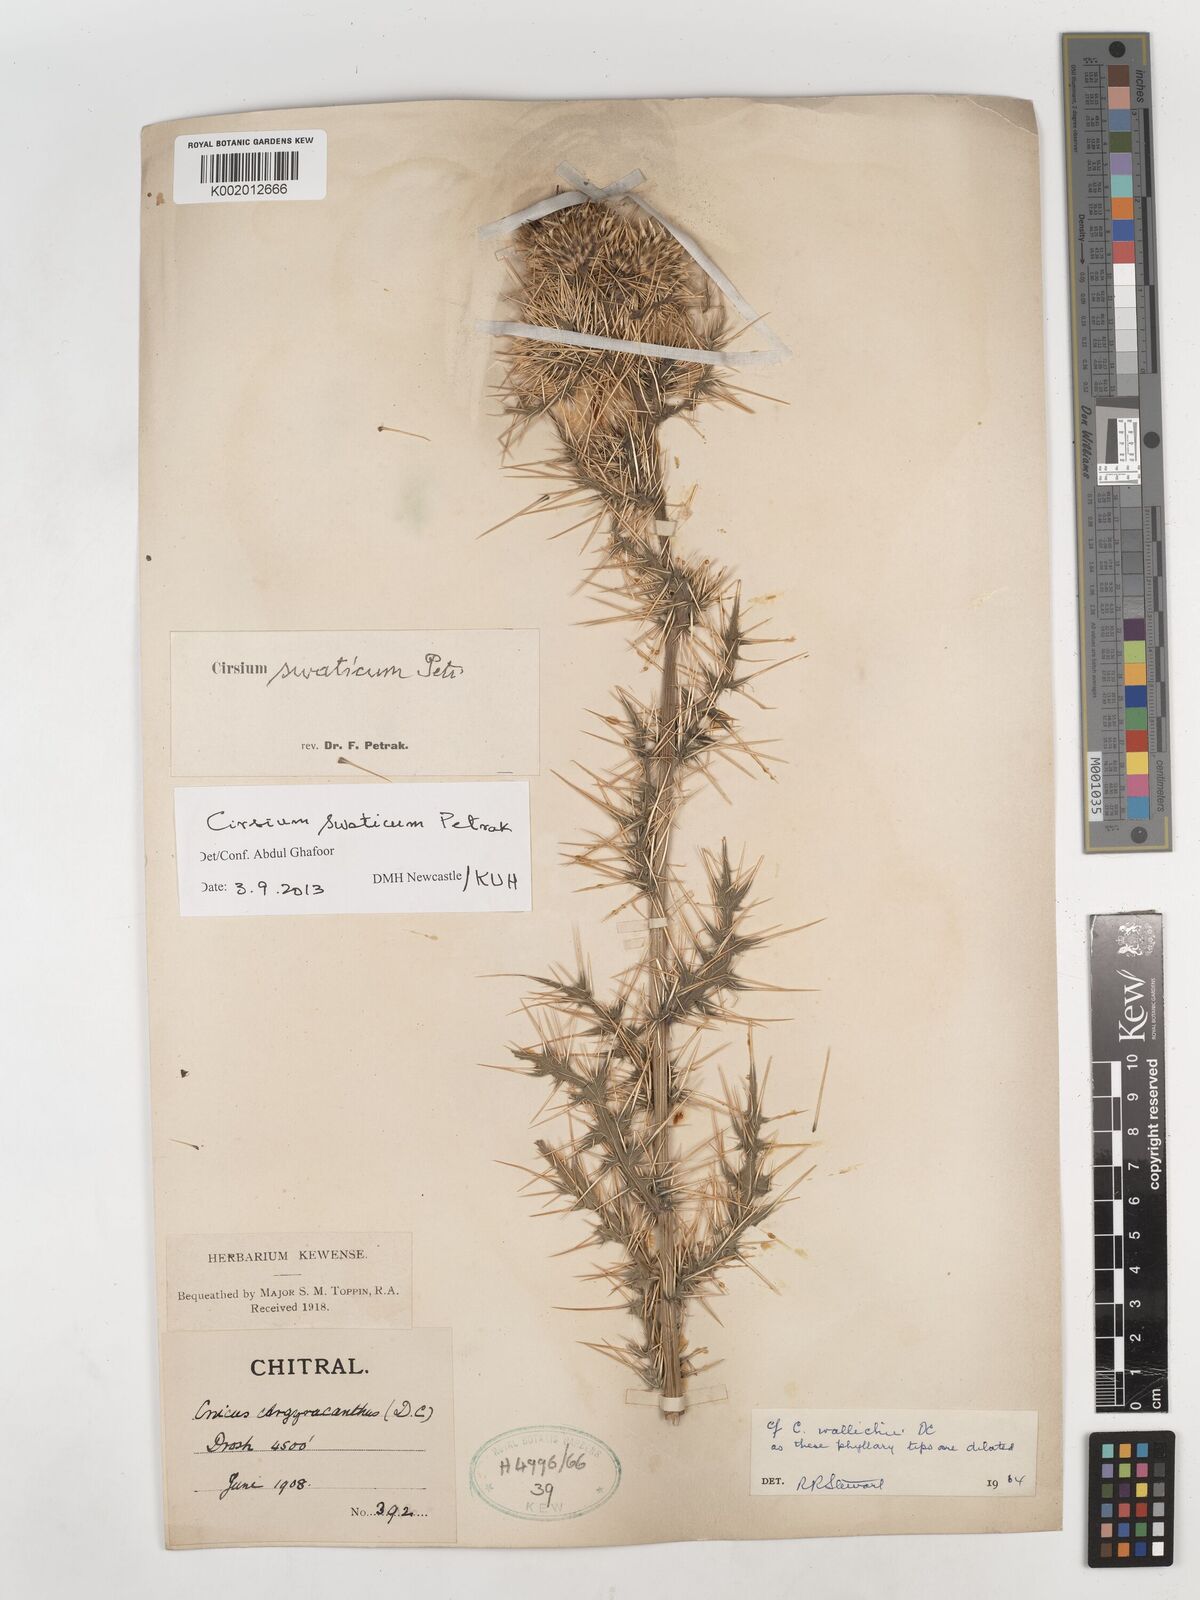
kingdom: Plantae
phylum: Tracheophyta
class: Magnoliopsida
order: Asterales
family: Asteraceae
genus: Cirsium
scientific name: Cirsium swaticum
